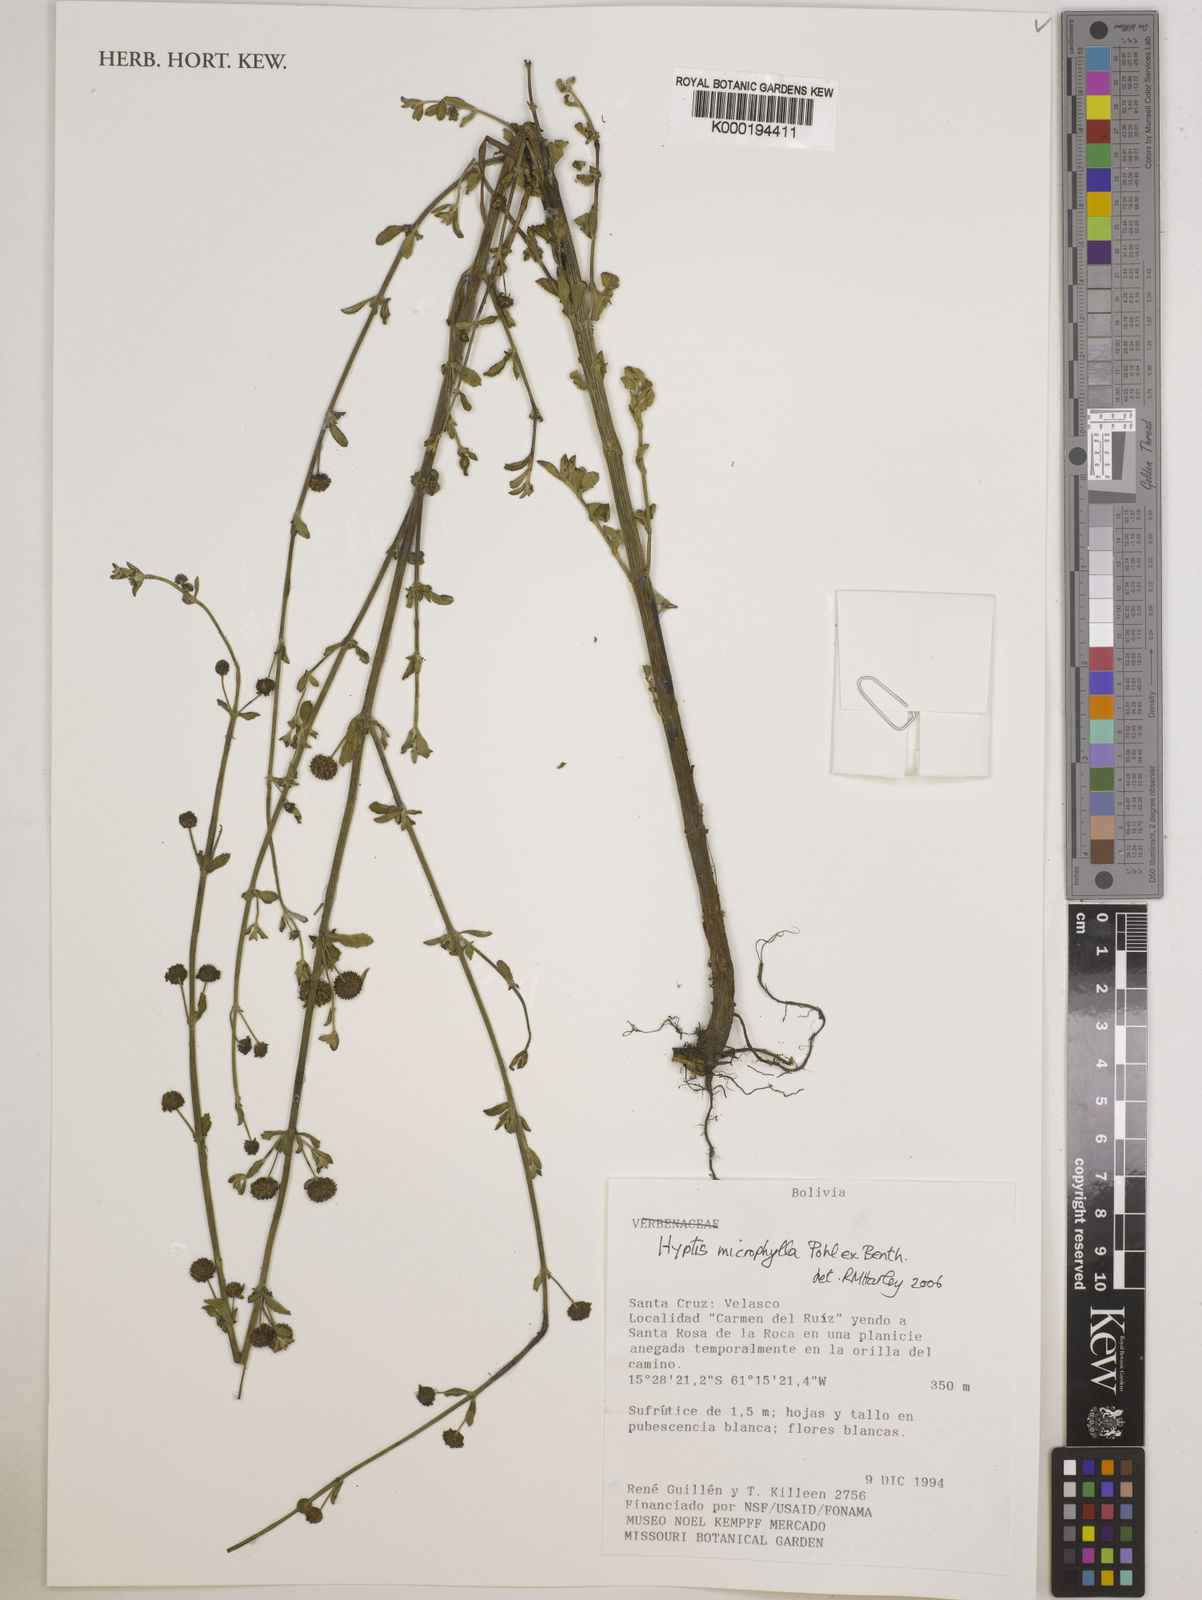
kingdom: Plantae
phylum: Tracheophyta
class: Magnoliopsida
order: Lamiales
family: Lamiaceae
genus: Hyptis
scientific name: Hyptis microphylla
